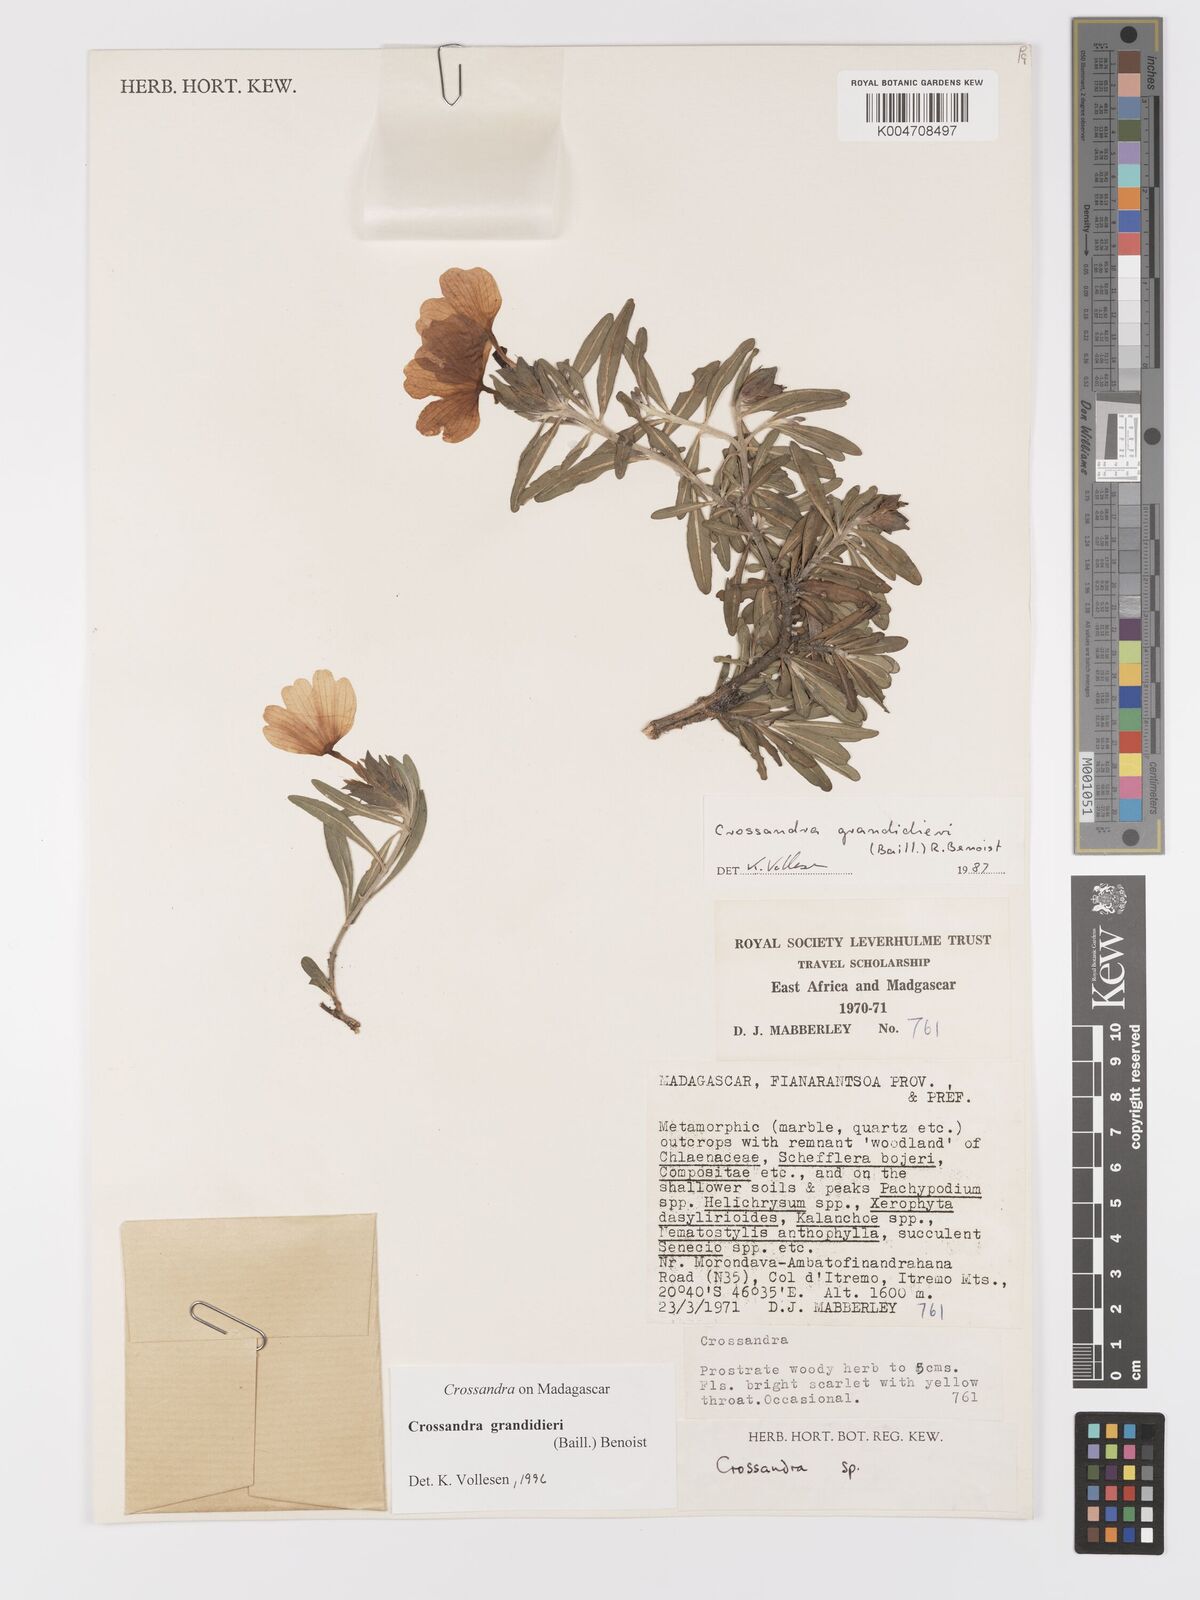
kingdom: Plantae
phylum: Tracheophyta
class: Magnoliopsida
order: Lamiales
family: Acanthaceae
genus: Crossandra
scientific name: Crossandra grandidieri
